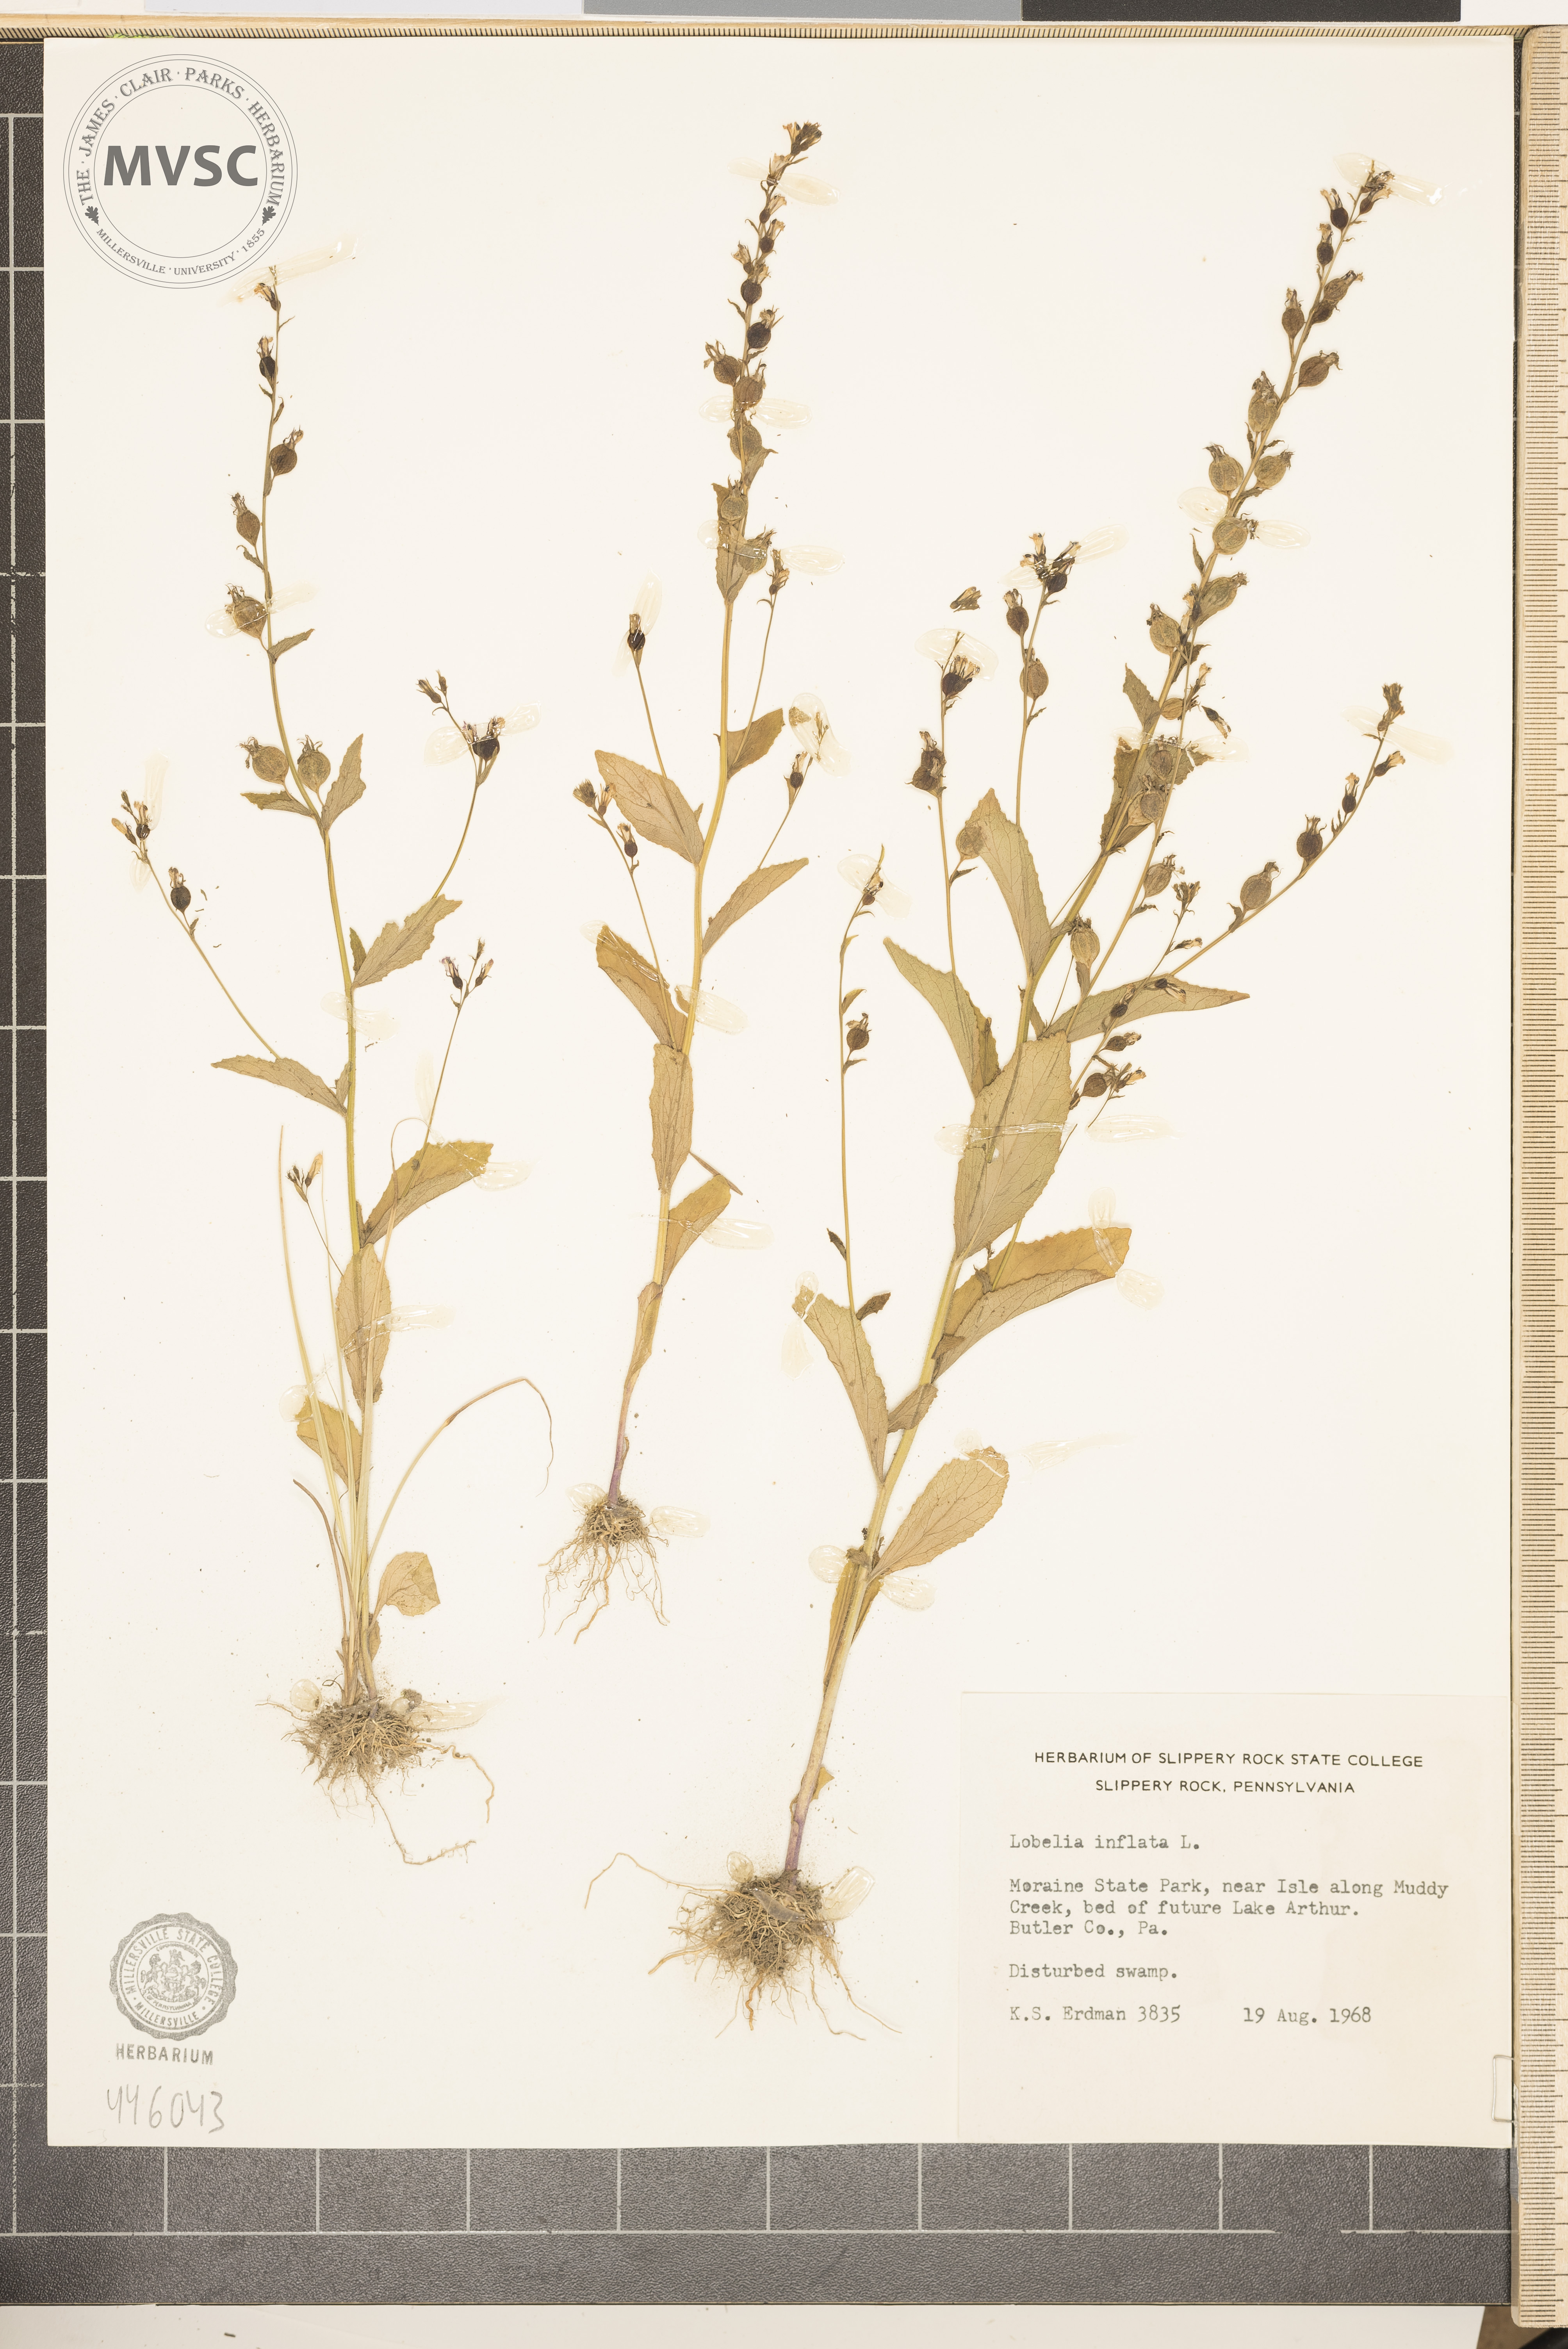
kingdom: Plantae
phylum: Tracheophyta
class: Magnoliopsida
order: Asterales
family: Campanulaceae
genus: Lobelia
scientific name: Lobelia inflata
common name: Indian tobacco
